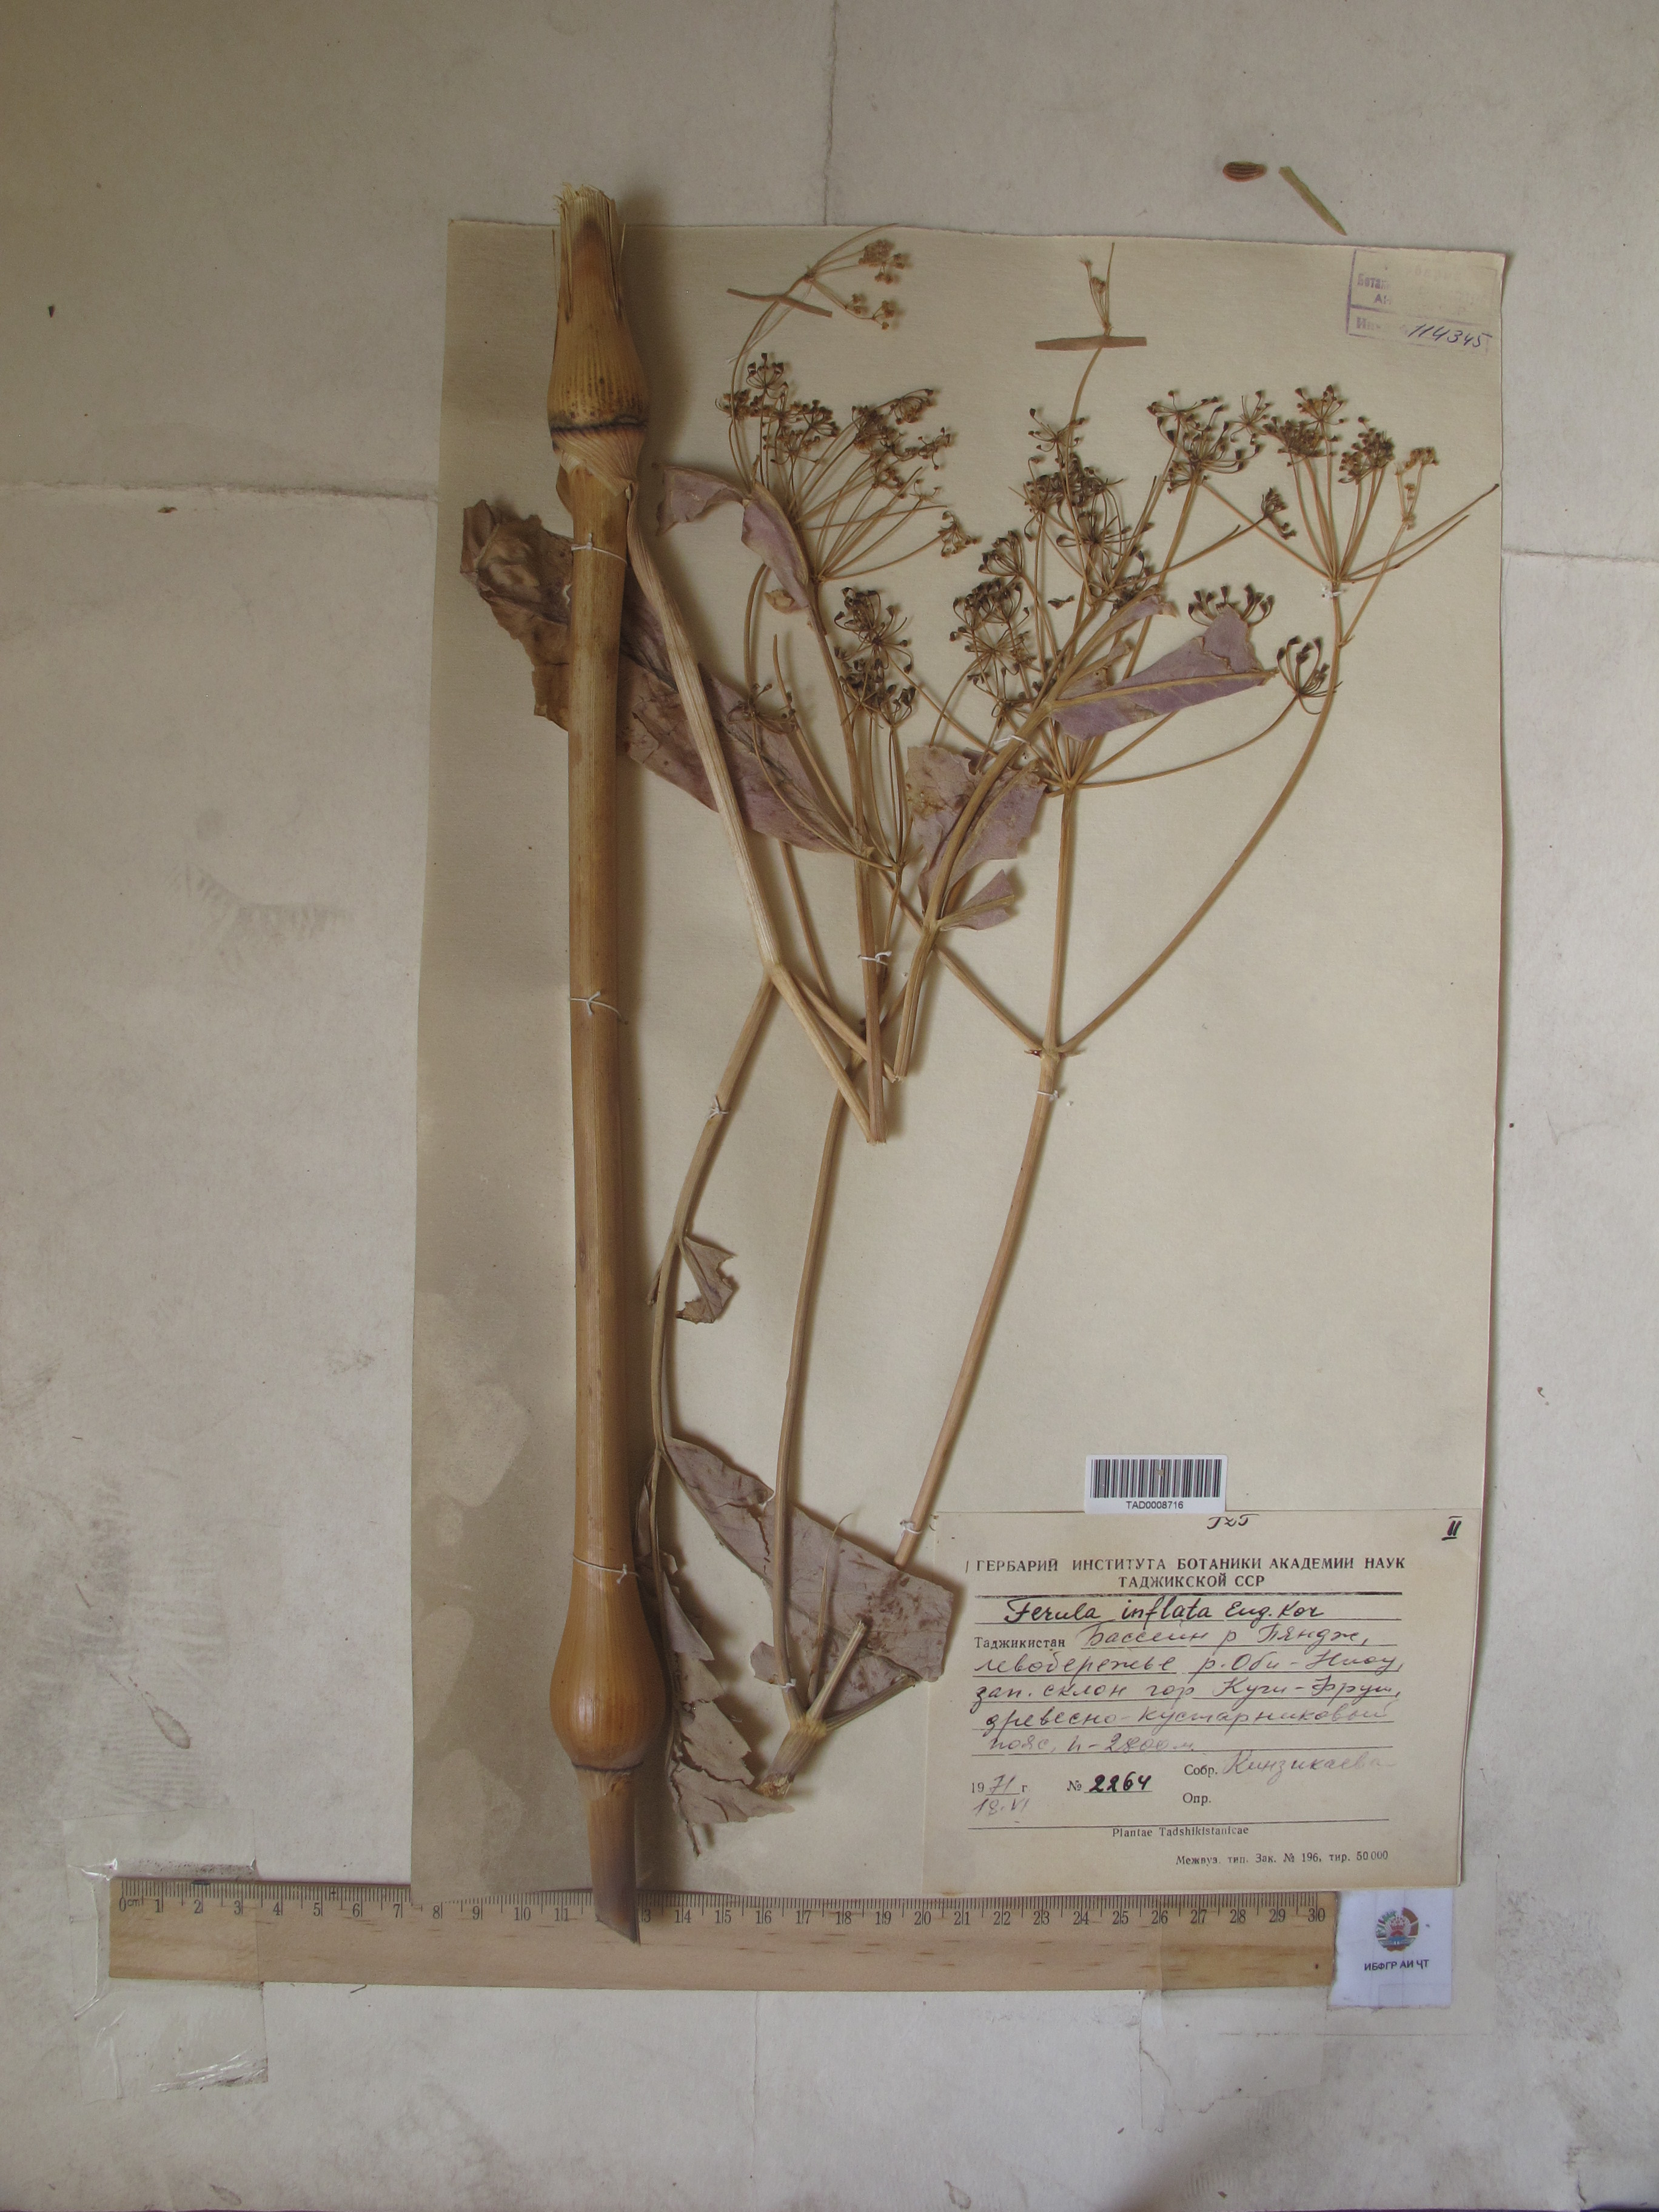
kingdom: Plantae
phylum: Tracheophyta
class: Magnoliopsida
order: Apiales
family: Apiaceae
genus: Ferula
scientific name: Ferula gigantea
